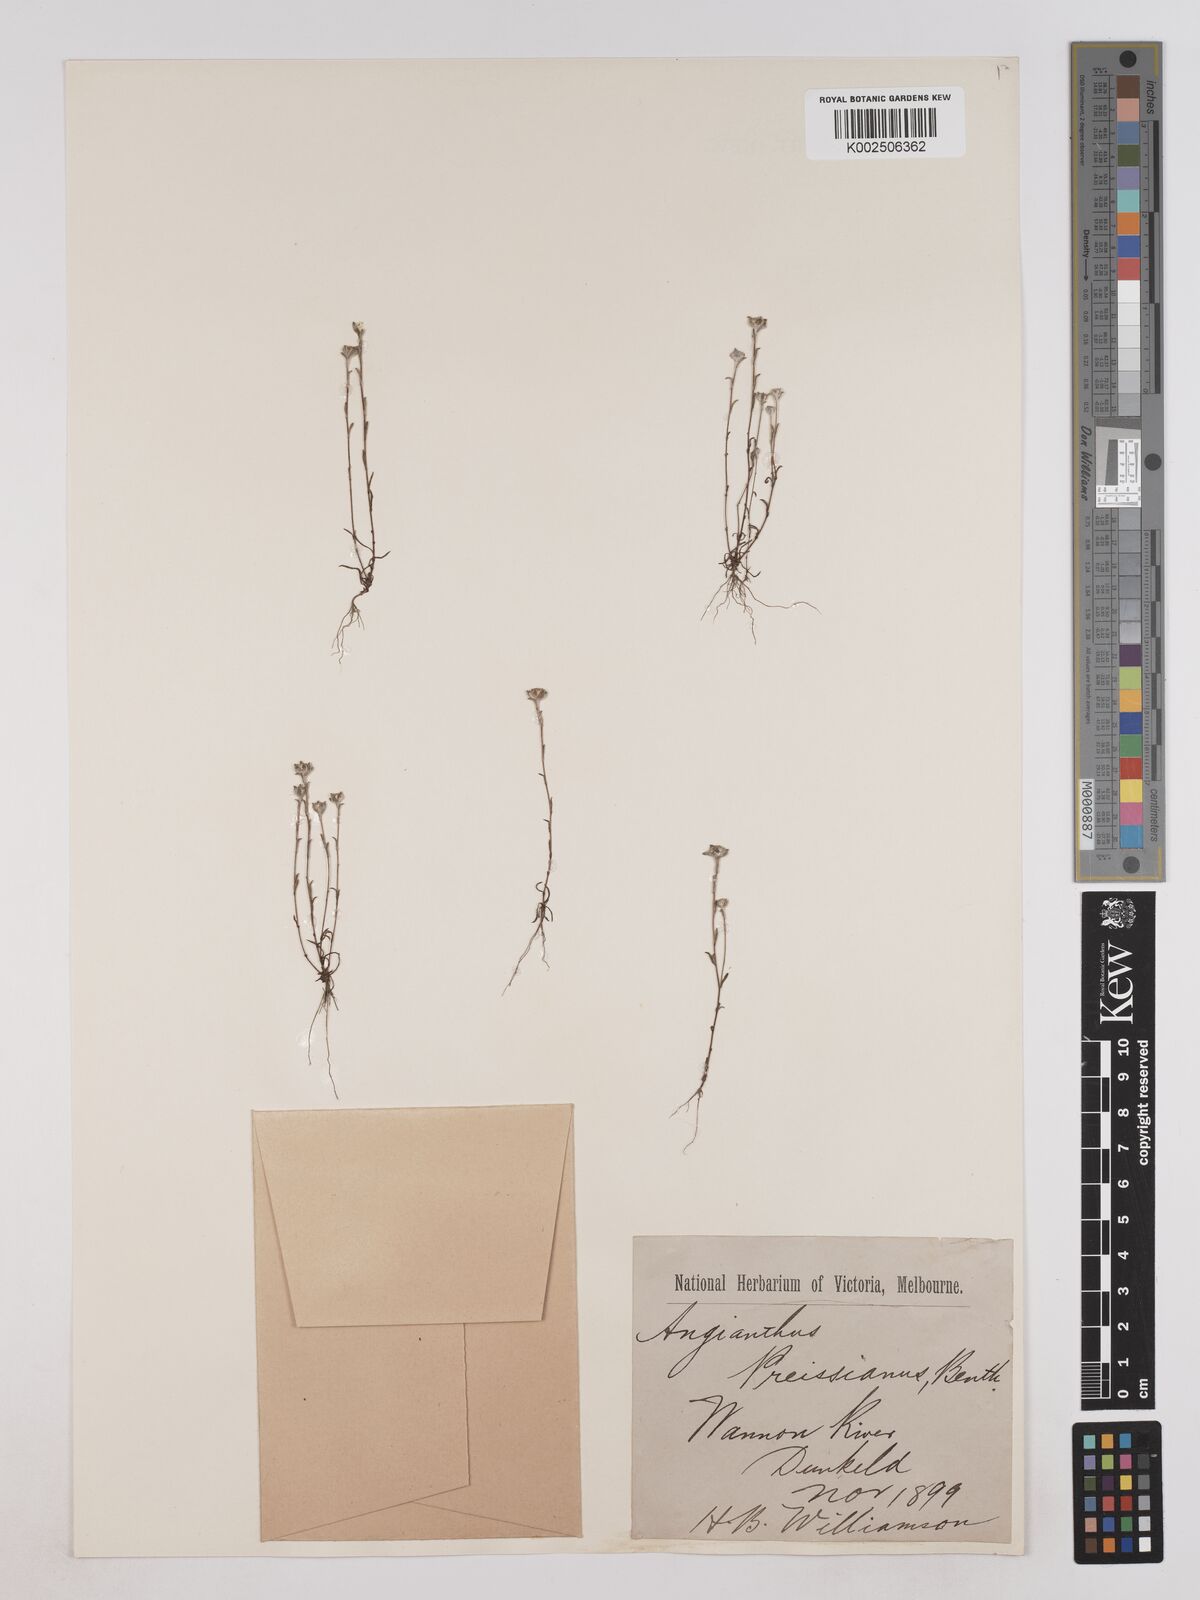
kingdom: Plantae
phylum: Tracheophyta
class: Magnoliopsida
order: Asterales
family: Asteraceae
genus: Angianthus
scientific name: Angianthus preissianus
